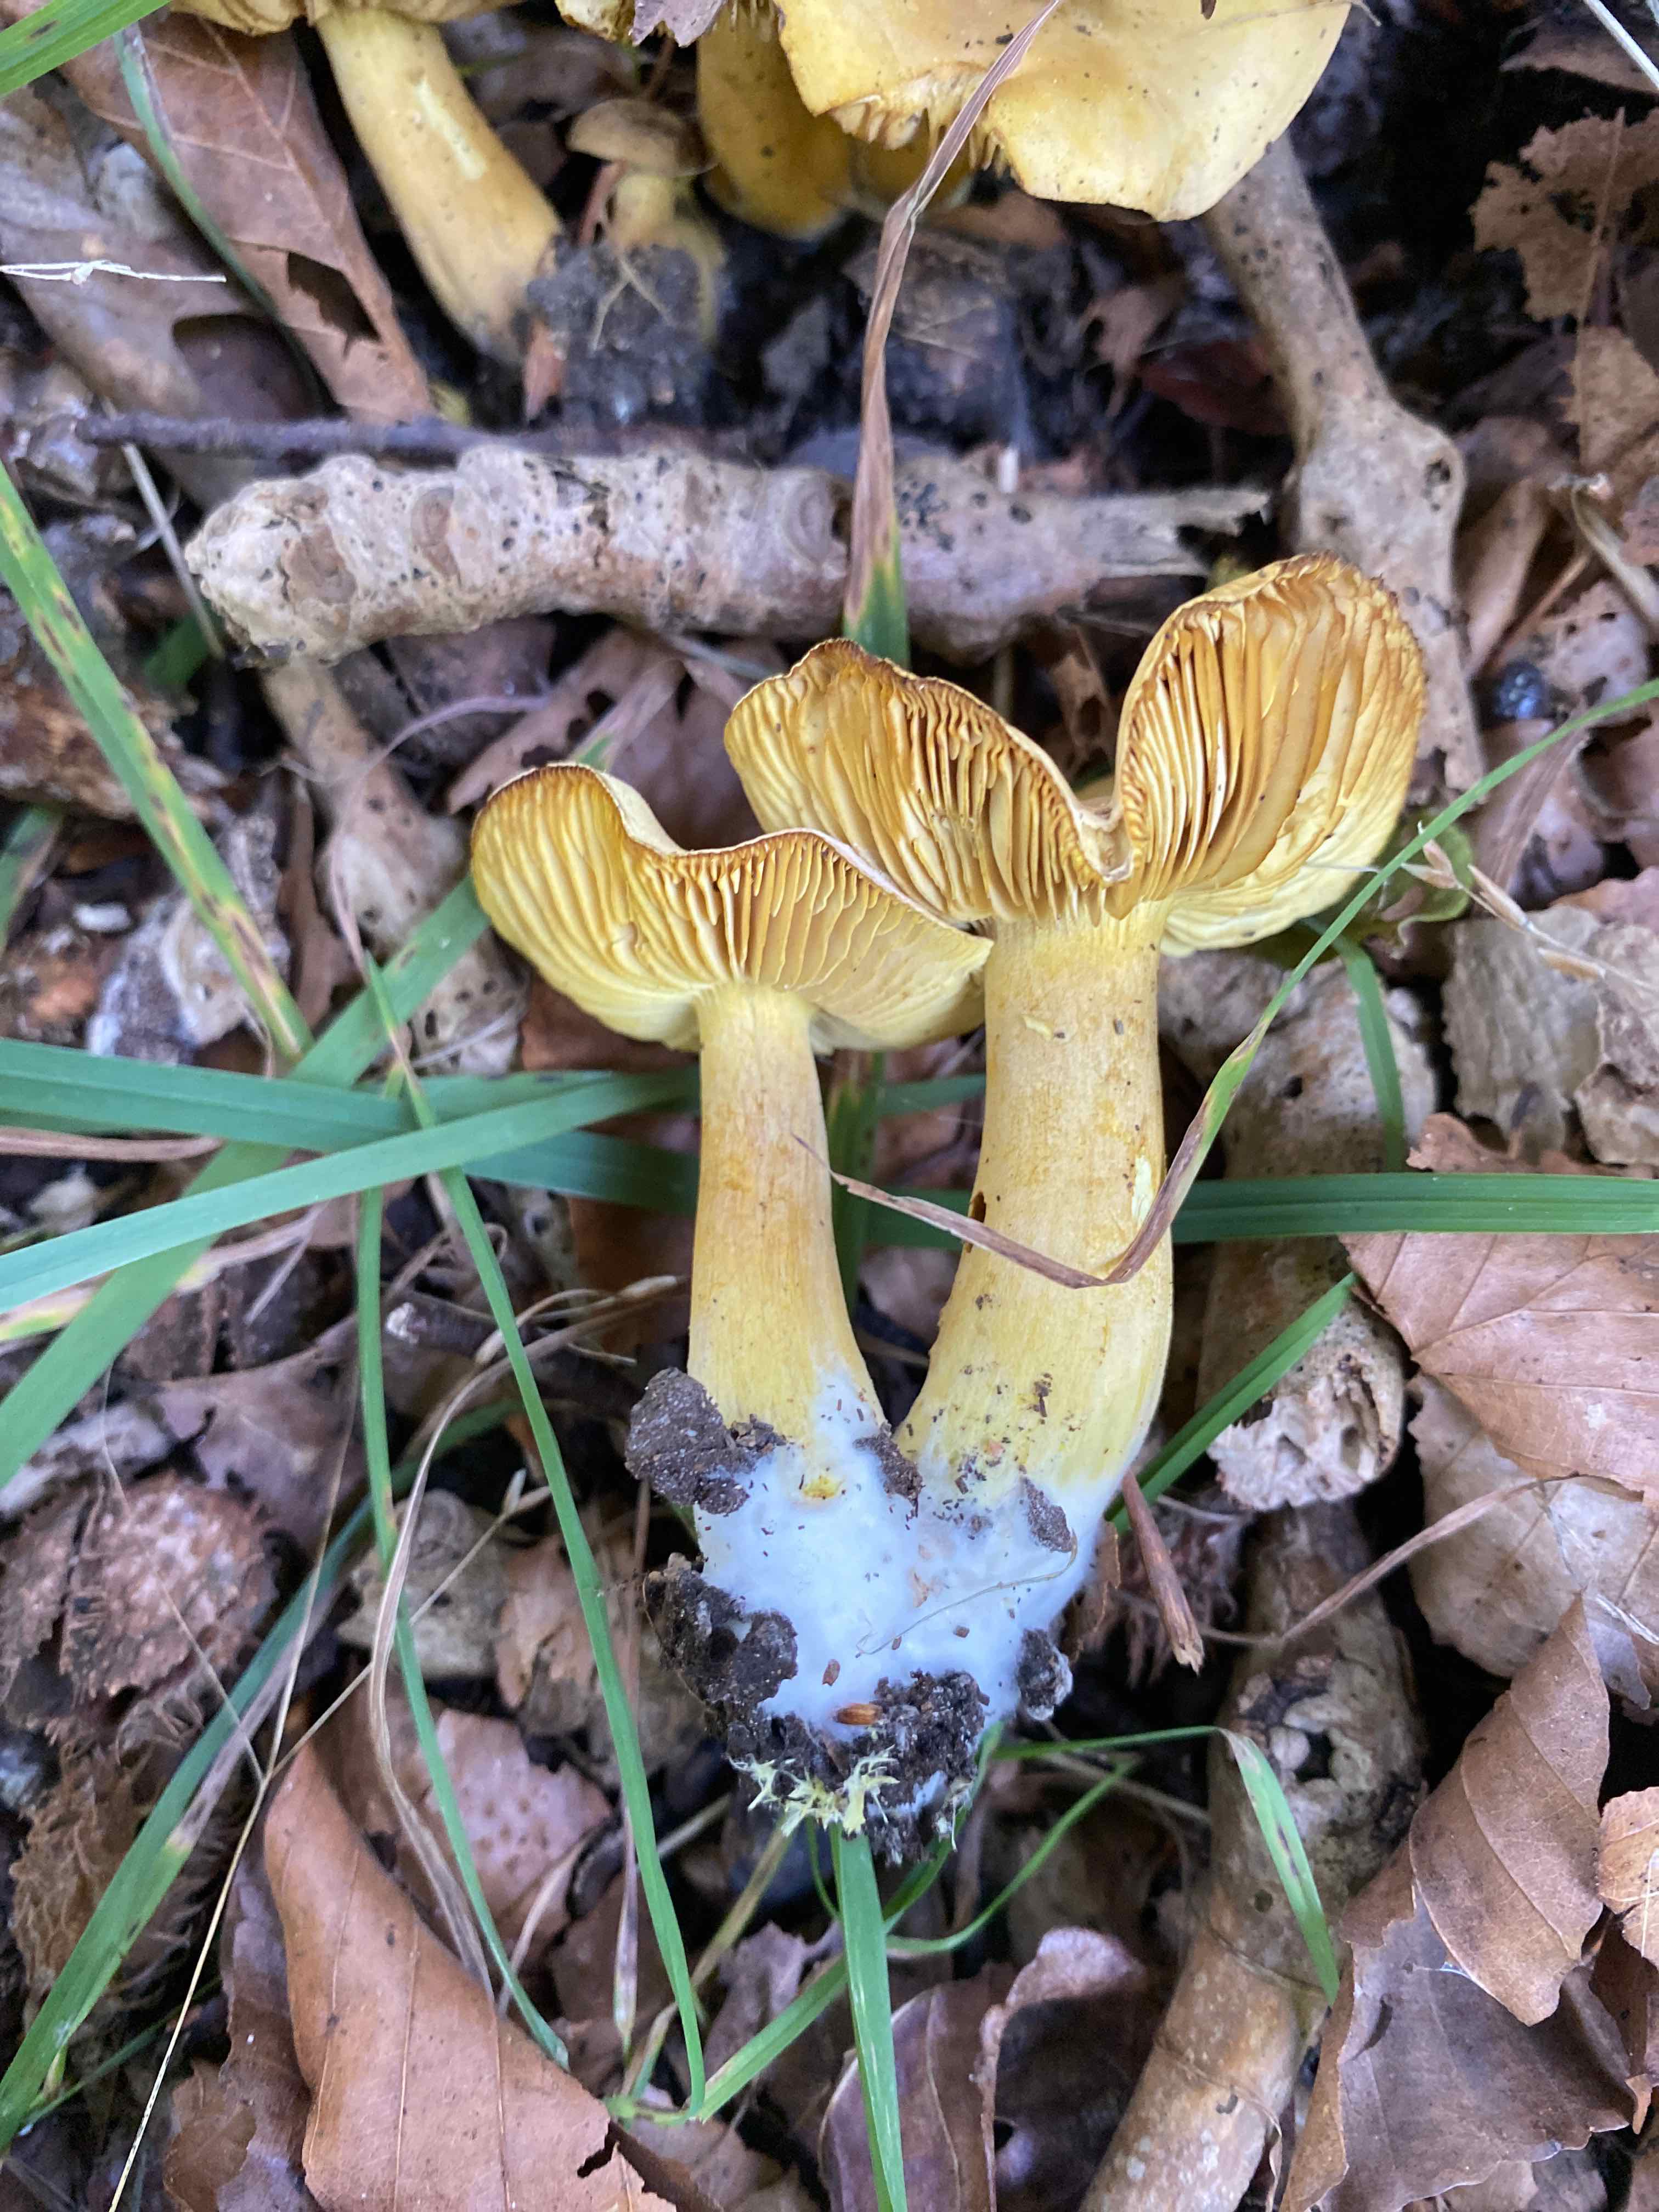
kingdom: Fungi
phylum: Basidiomycota
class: Agaricomycetes
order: Agaricales
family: Tricholomataceae
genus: Tricholoma
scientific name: Tricholoma sulphureum
